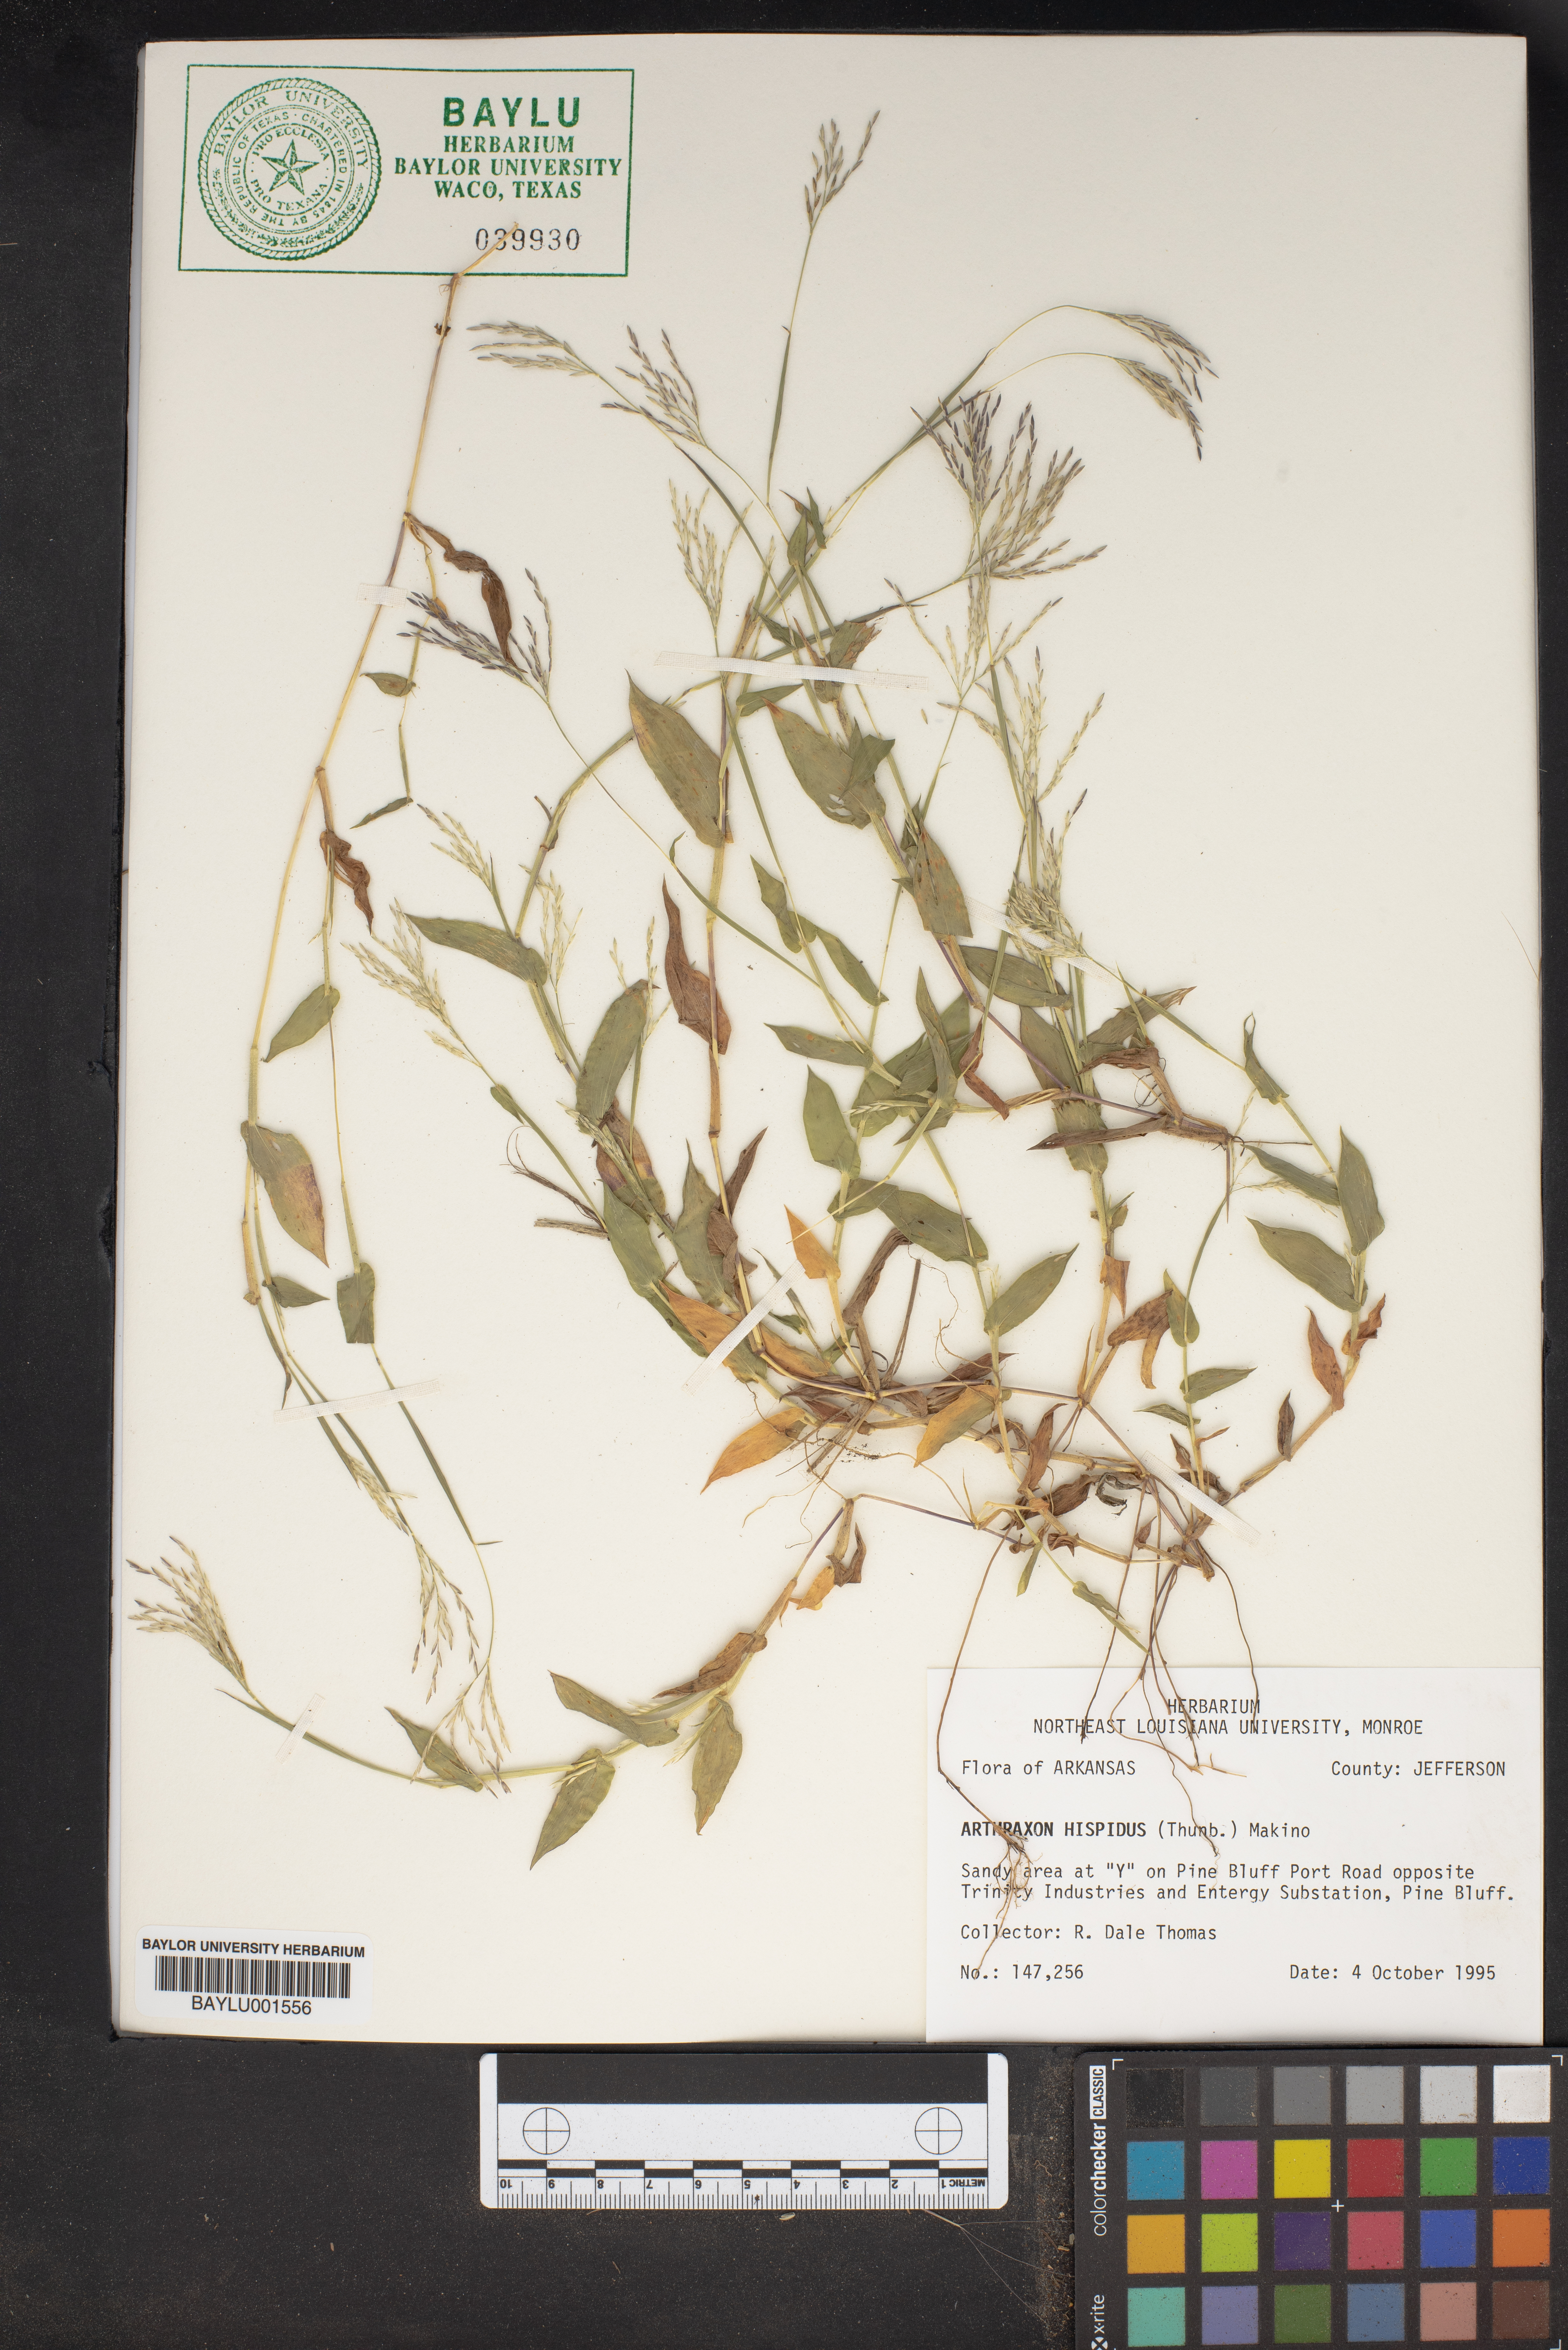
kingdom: Plantae
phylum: Tracheophyta
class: Liliopsida
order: Poales
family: Poaceae
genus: Arthraxon
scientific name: Arthraxon hispidus
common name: Small carpgrass
